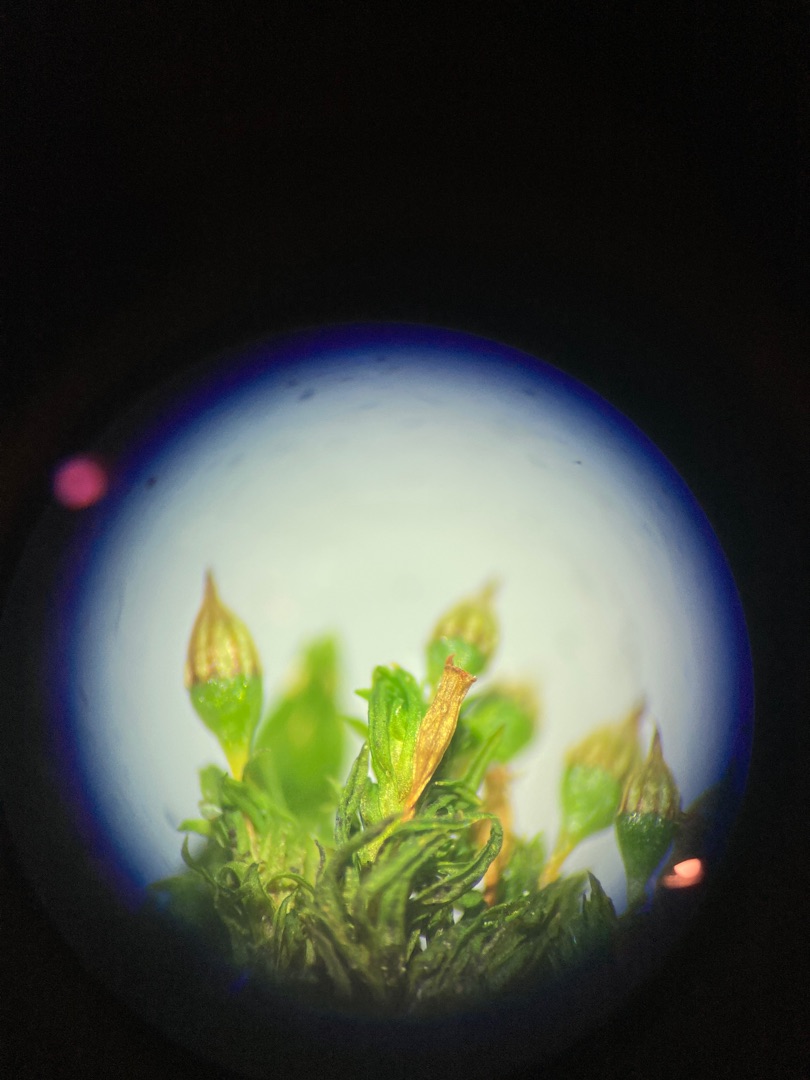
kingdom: Plantae
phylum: Bryophyta
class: Bryopsida
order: Orthotrichales
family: Orthotrichaceae
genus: Orthotrichum
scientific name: Orthotrichum pulchellum
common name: Smuk furehætte
